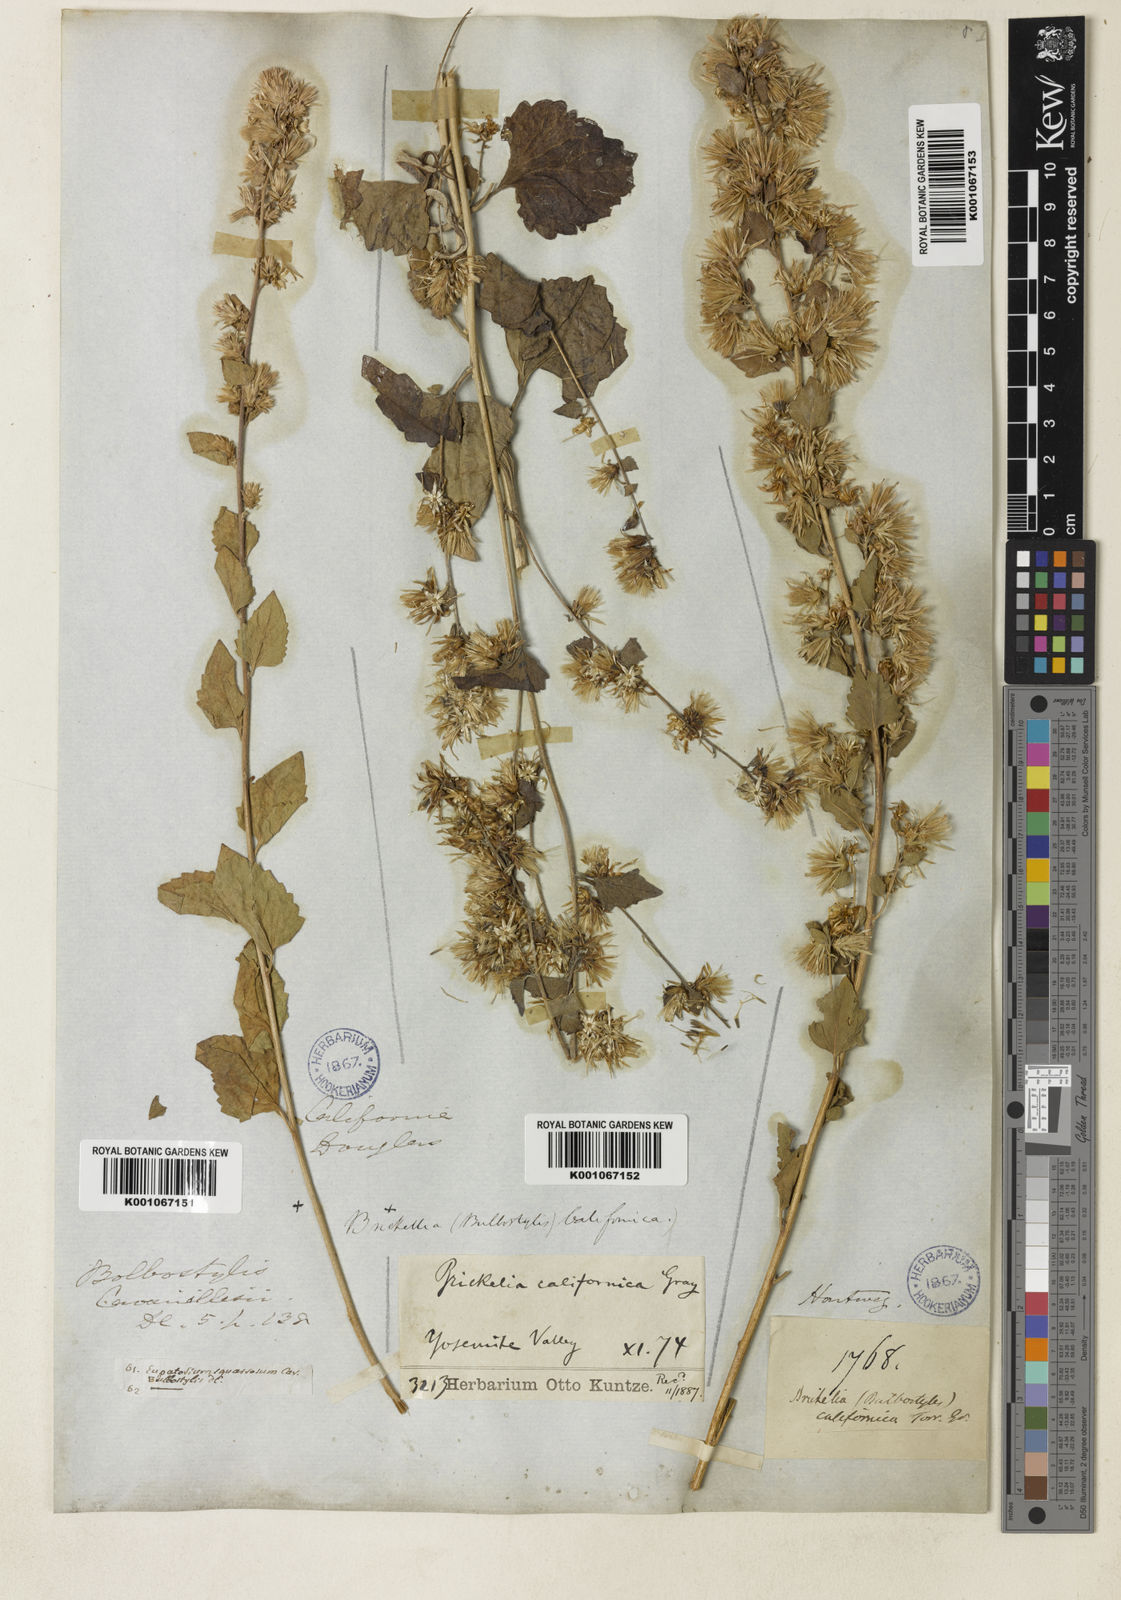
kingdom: Plantae
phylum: Tracheophyta
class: Magnoliopsida
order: Asterales
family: Asteraceae
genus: Brickellia
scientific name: Brickellia californica
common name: California brickellbush
